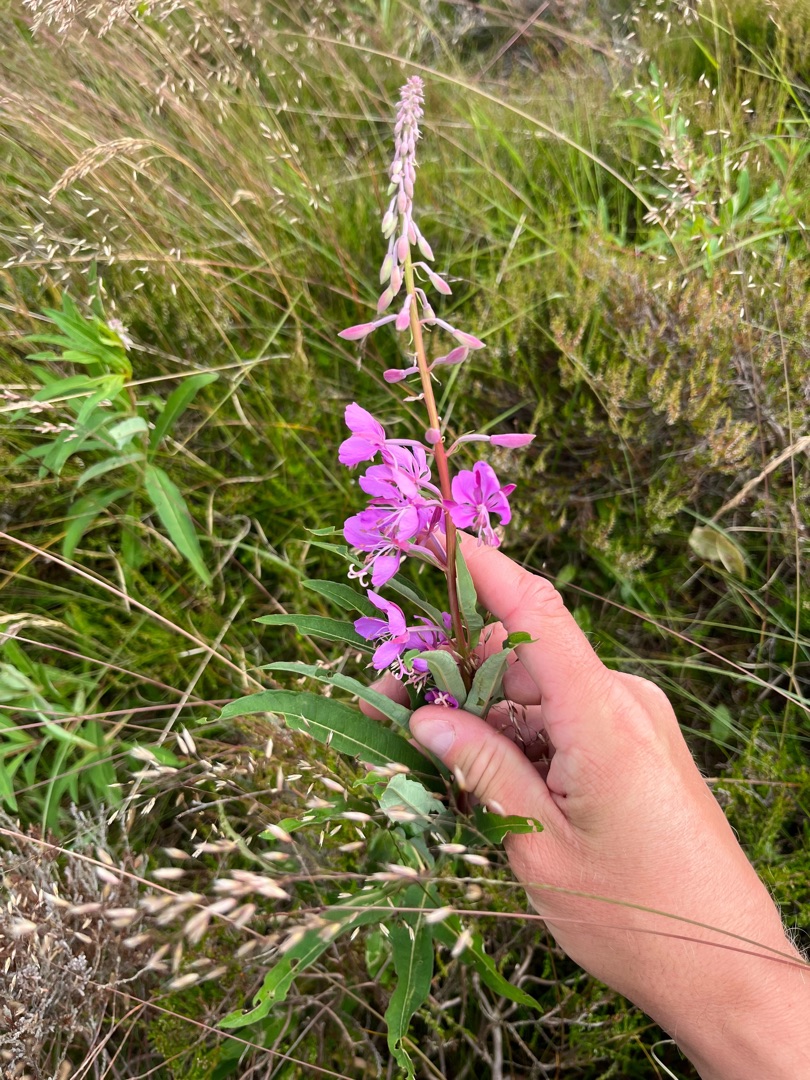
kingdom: Plantae
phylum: Tracheophyta
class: Magnoliopsida
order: Myrtales
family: Onagraceae
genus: Chamaenerion
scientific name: Chamaenerion angustifolium
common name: Gederams
